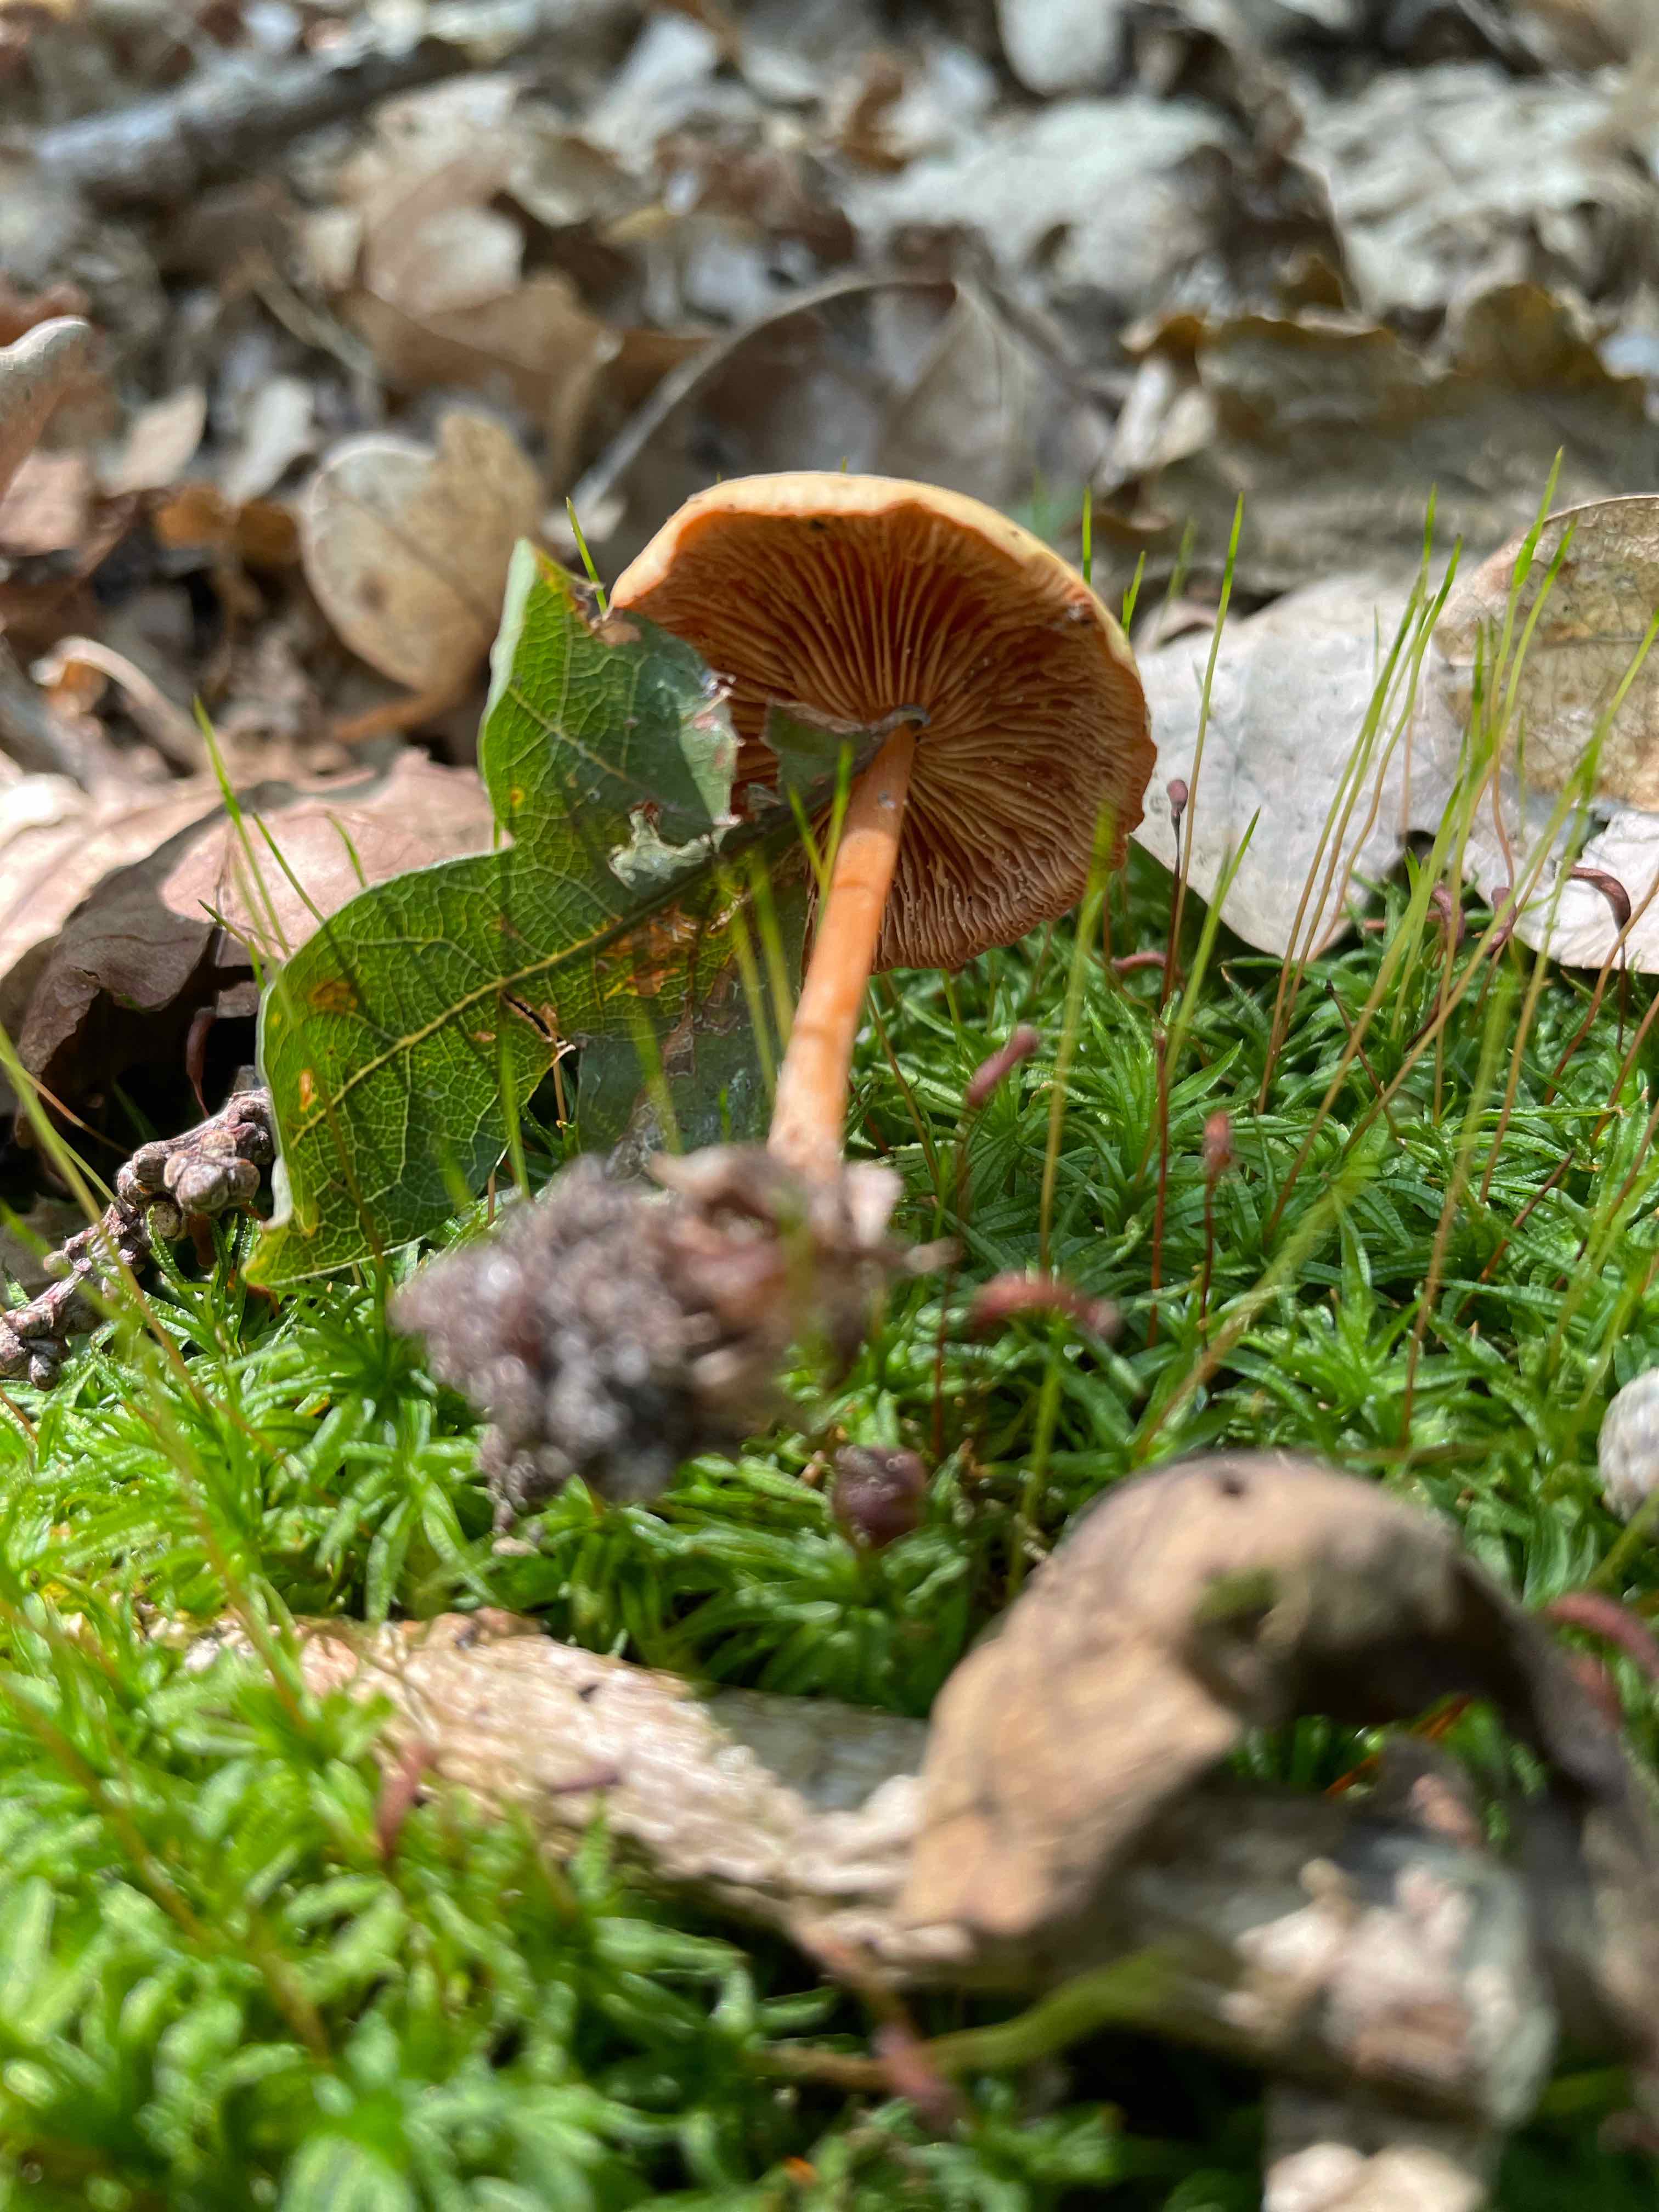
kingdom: Fungi
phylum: Basidiomycota
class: Agaricomycetes
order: Agaricales
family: Omphalotaceae
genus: Gymnopus
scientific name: Gymnopus dryophilus
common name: løv-fladhat
